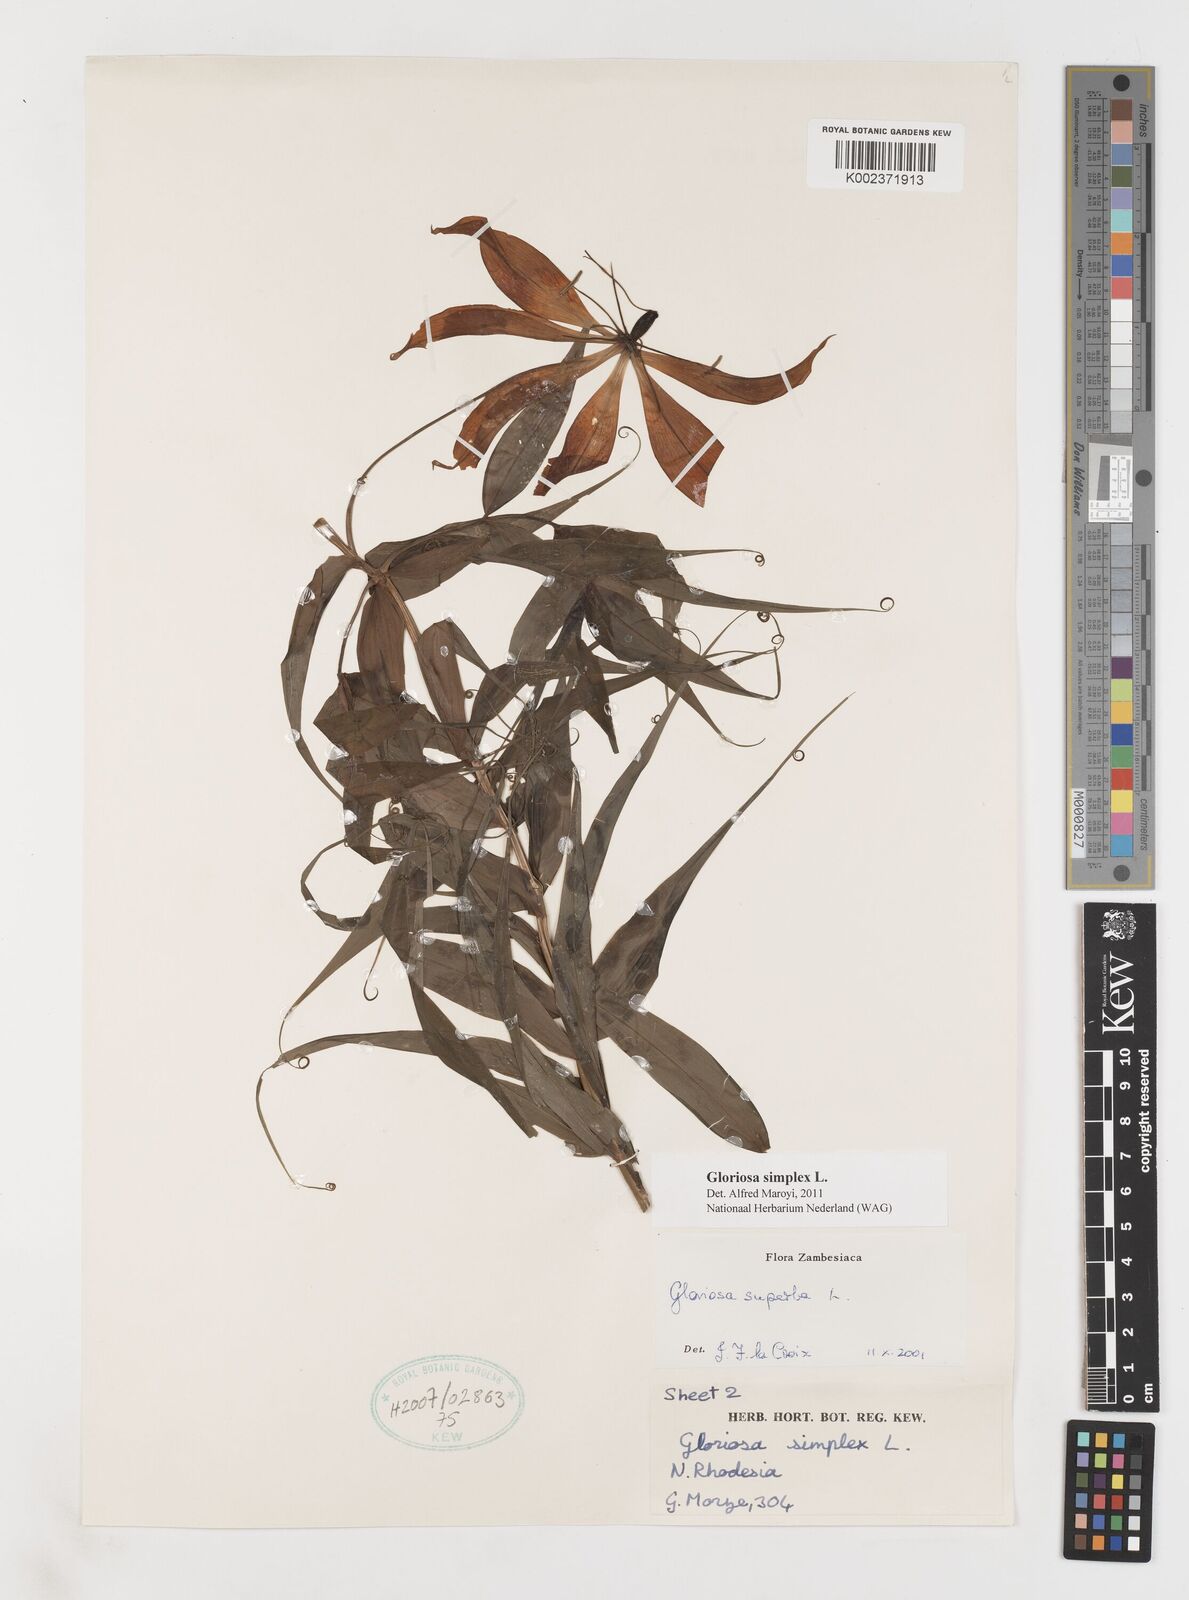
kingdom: Plantae
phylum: Tracheophyta
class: Liliopsida
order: Liliales
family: Colchicaceae
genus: Gloriosa
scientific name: Gloriosa simplex
